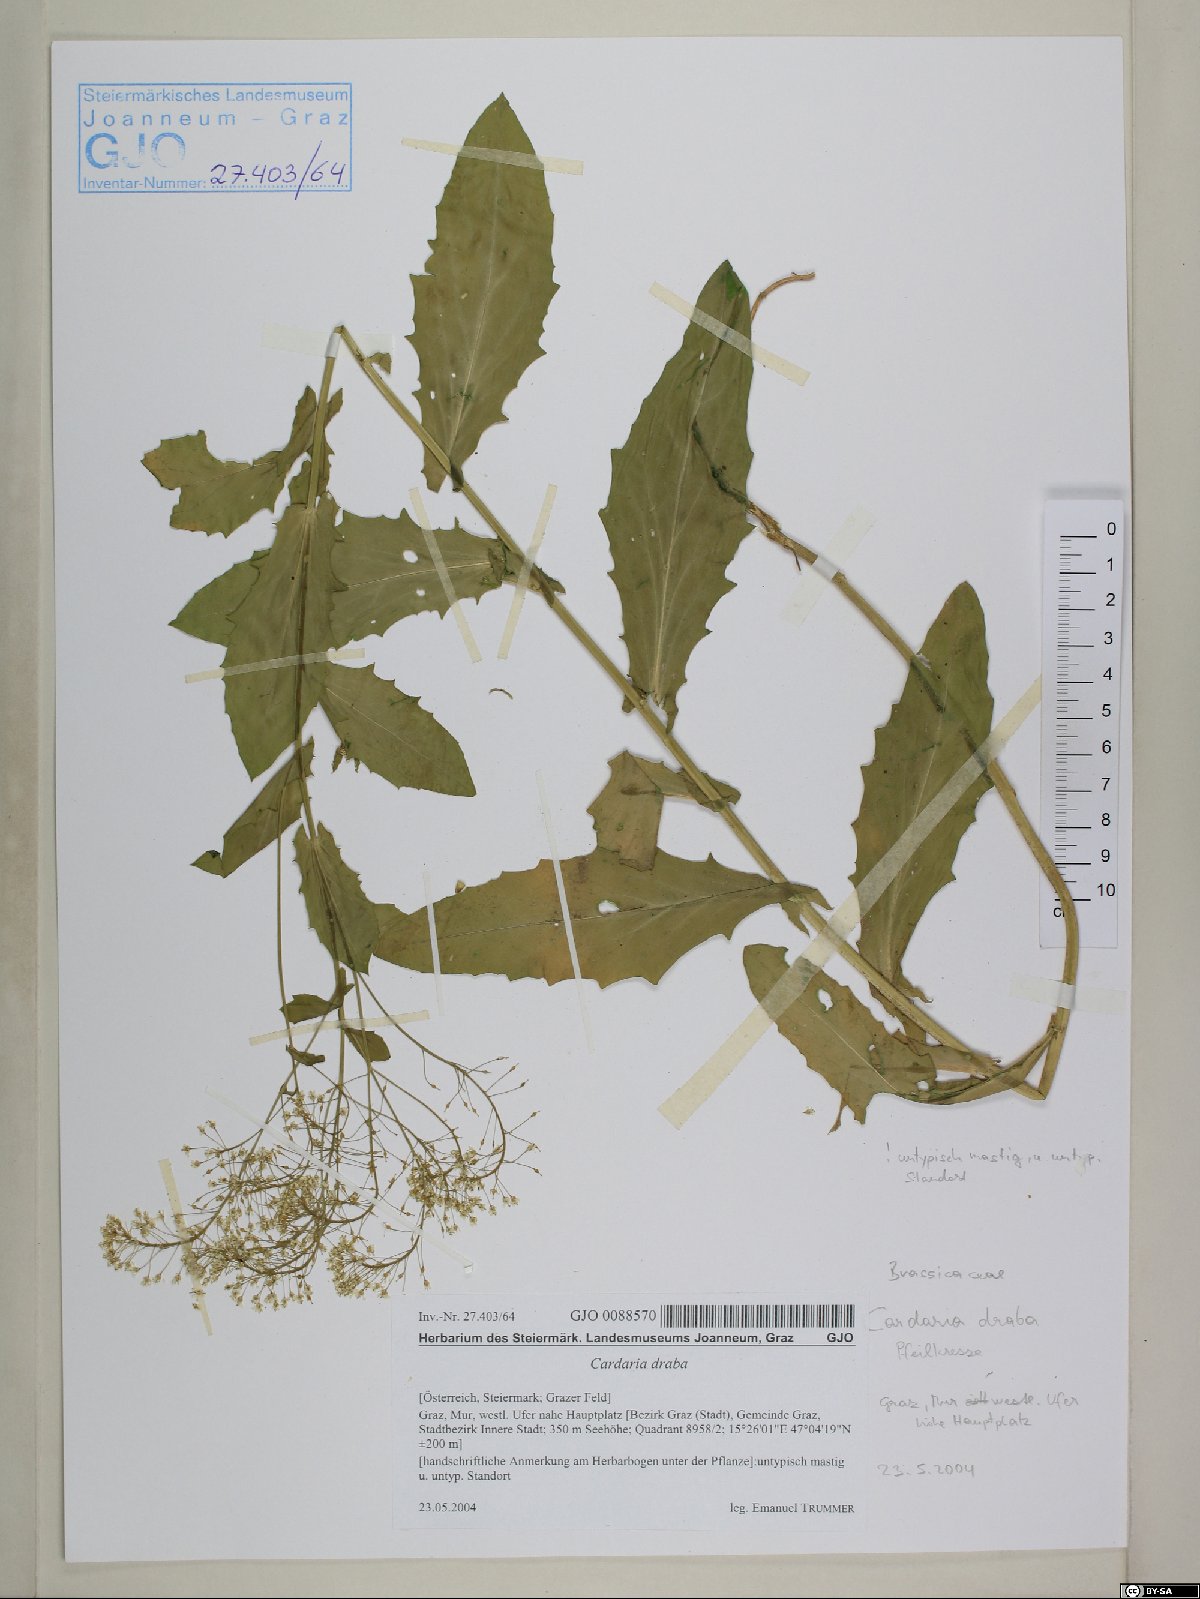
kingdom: Plantae
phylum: Tracheophyta
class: Magnoliopsida
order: Brassicales
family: Brassicaceae
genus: Lepidium
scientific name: Lepidium draba
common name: Hoary cress
